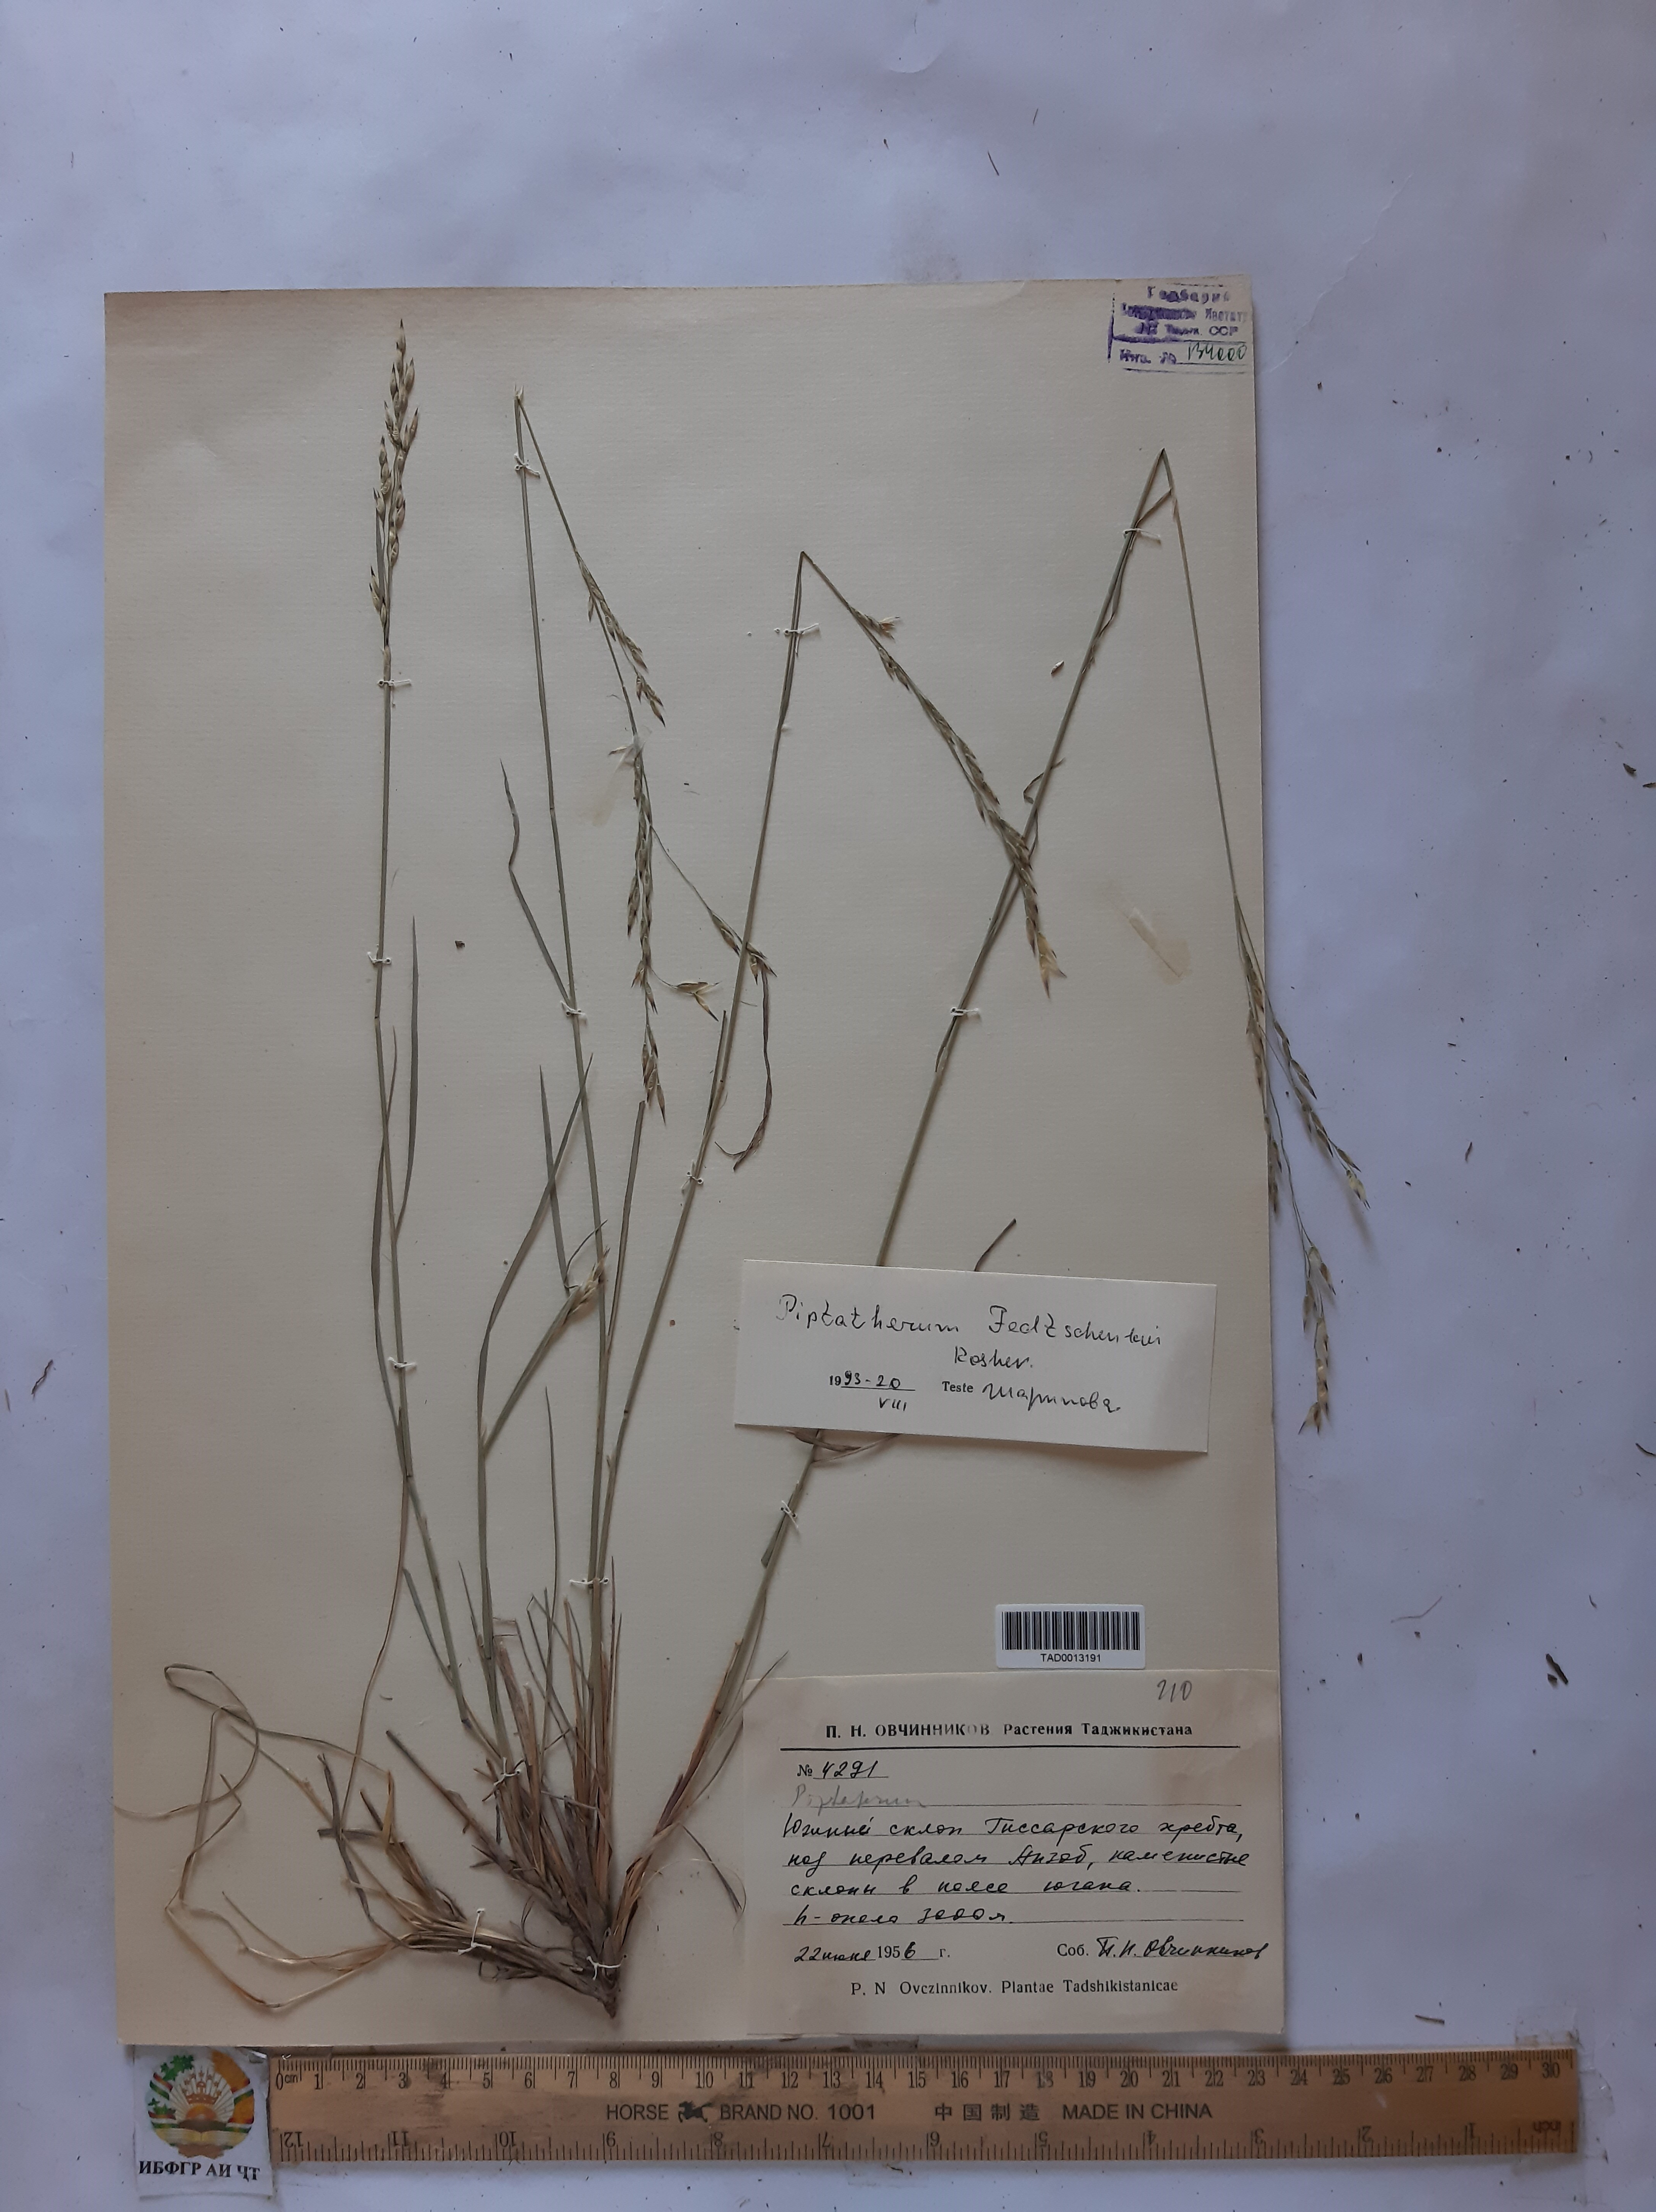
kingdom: Plantae
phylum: Tracheophyta
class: Liliopsida
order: Poales
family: Poaceae
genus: Piptatherum
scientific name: Piptatherum sogdianum
